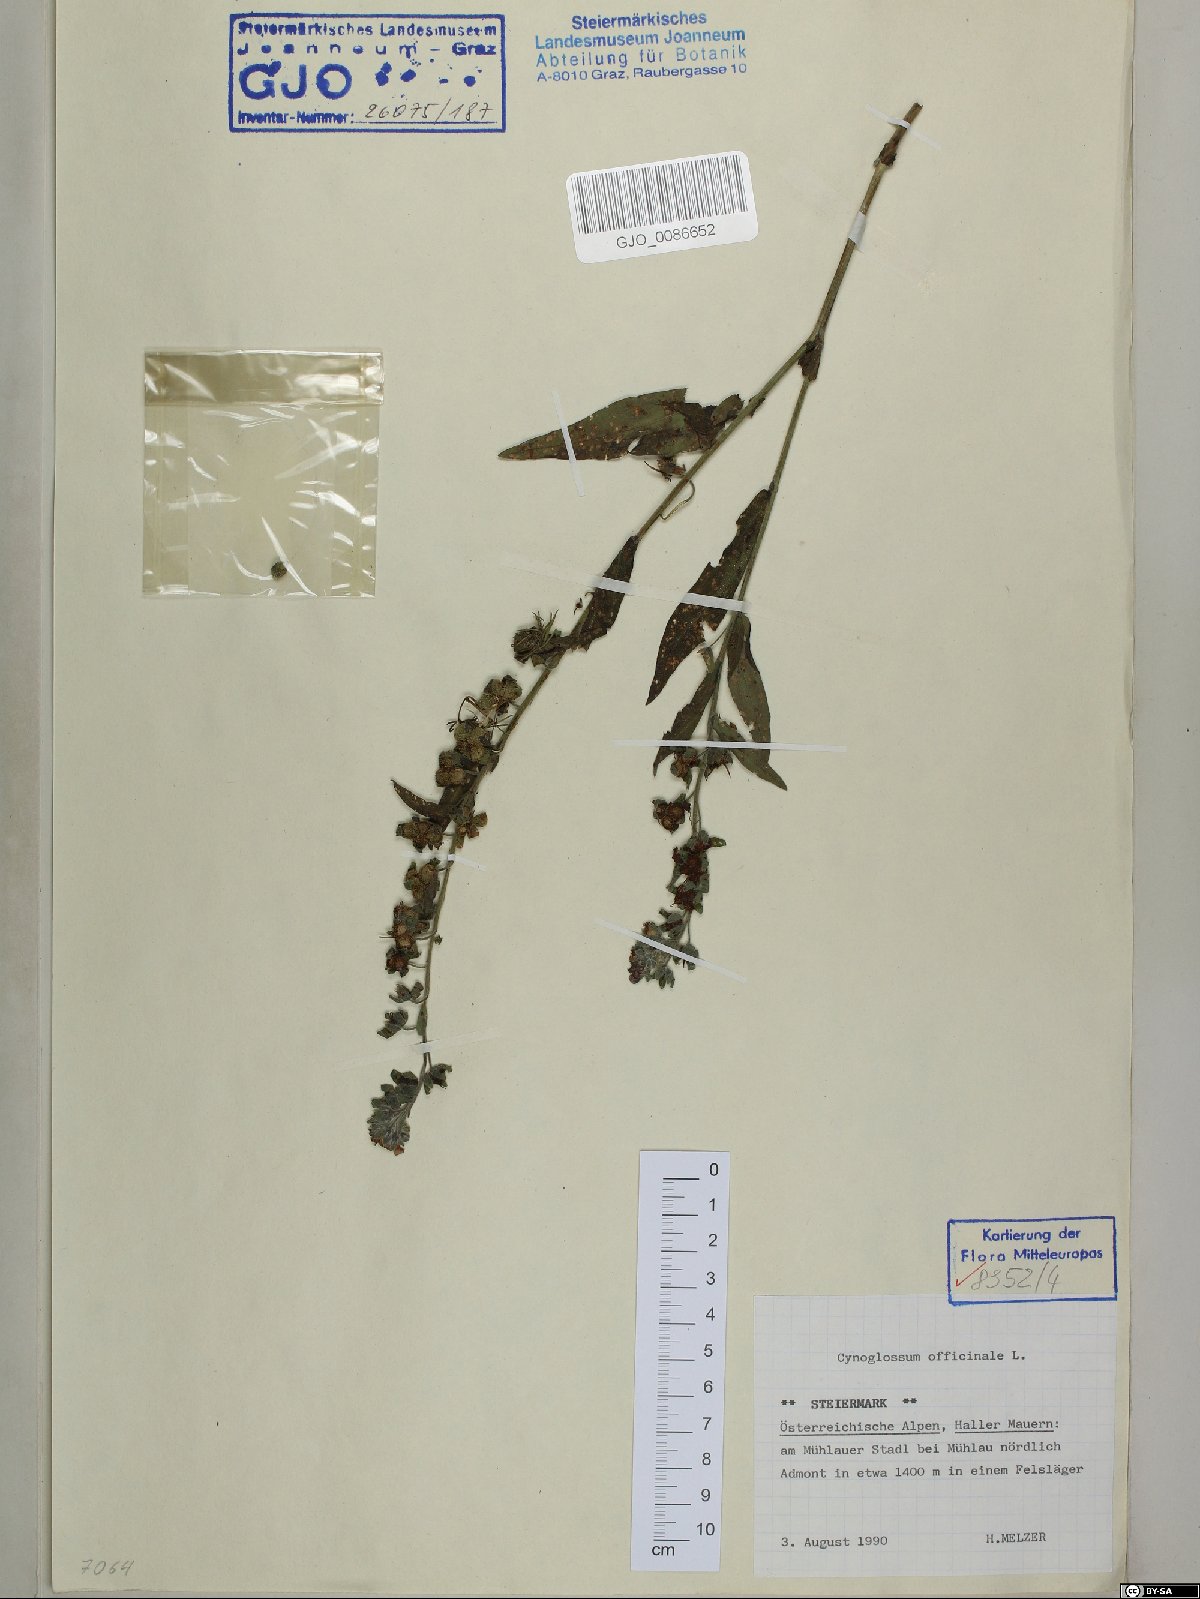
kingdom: Plantae
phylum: Tracheophyta
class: Magnoliopsida
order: Boraginales
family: Boraginaceae
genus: Cynoglossum
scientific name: Cynoglossum officinale
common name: Hound's-tongue
